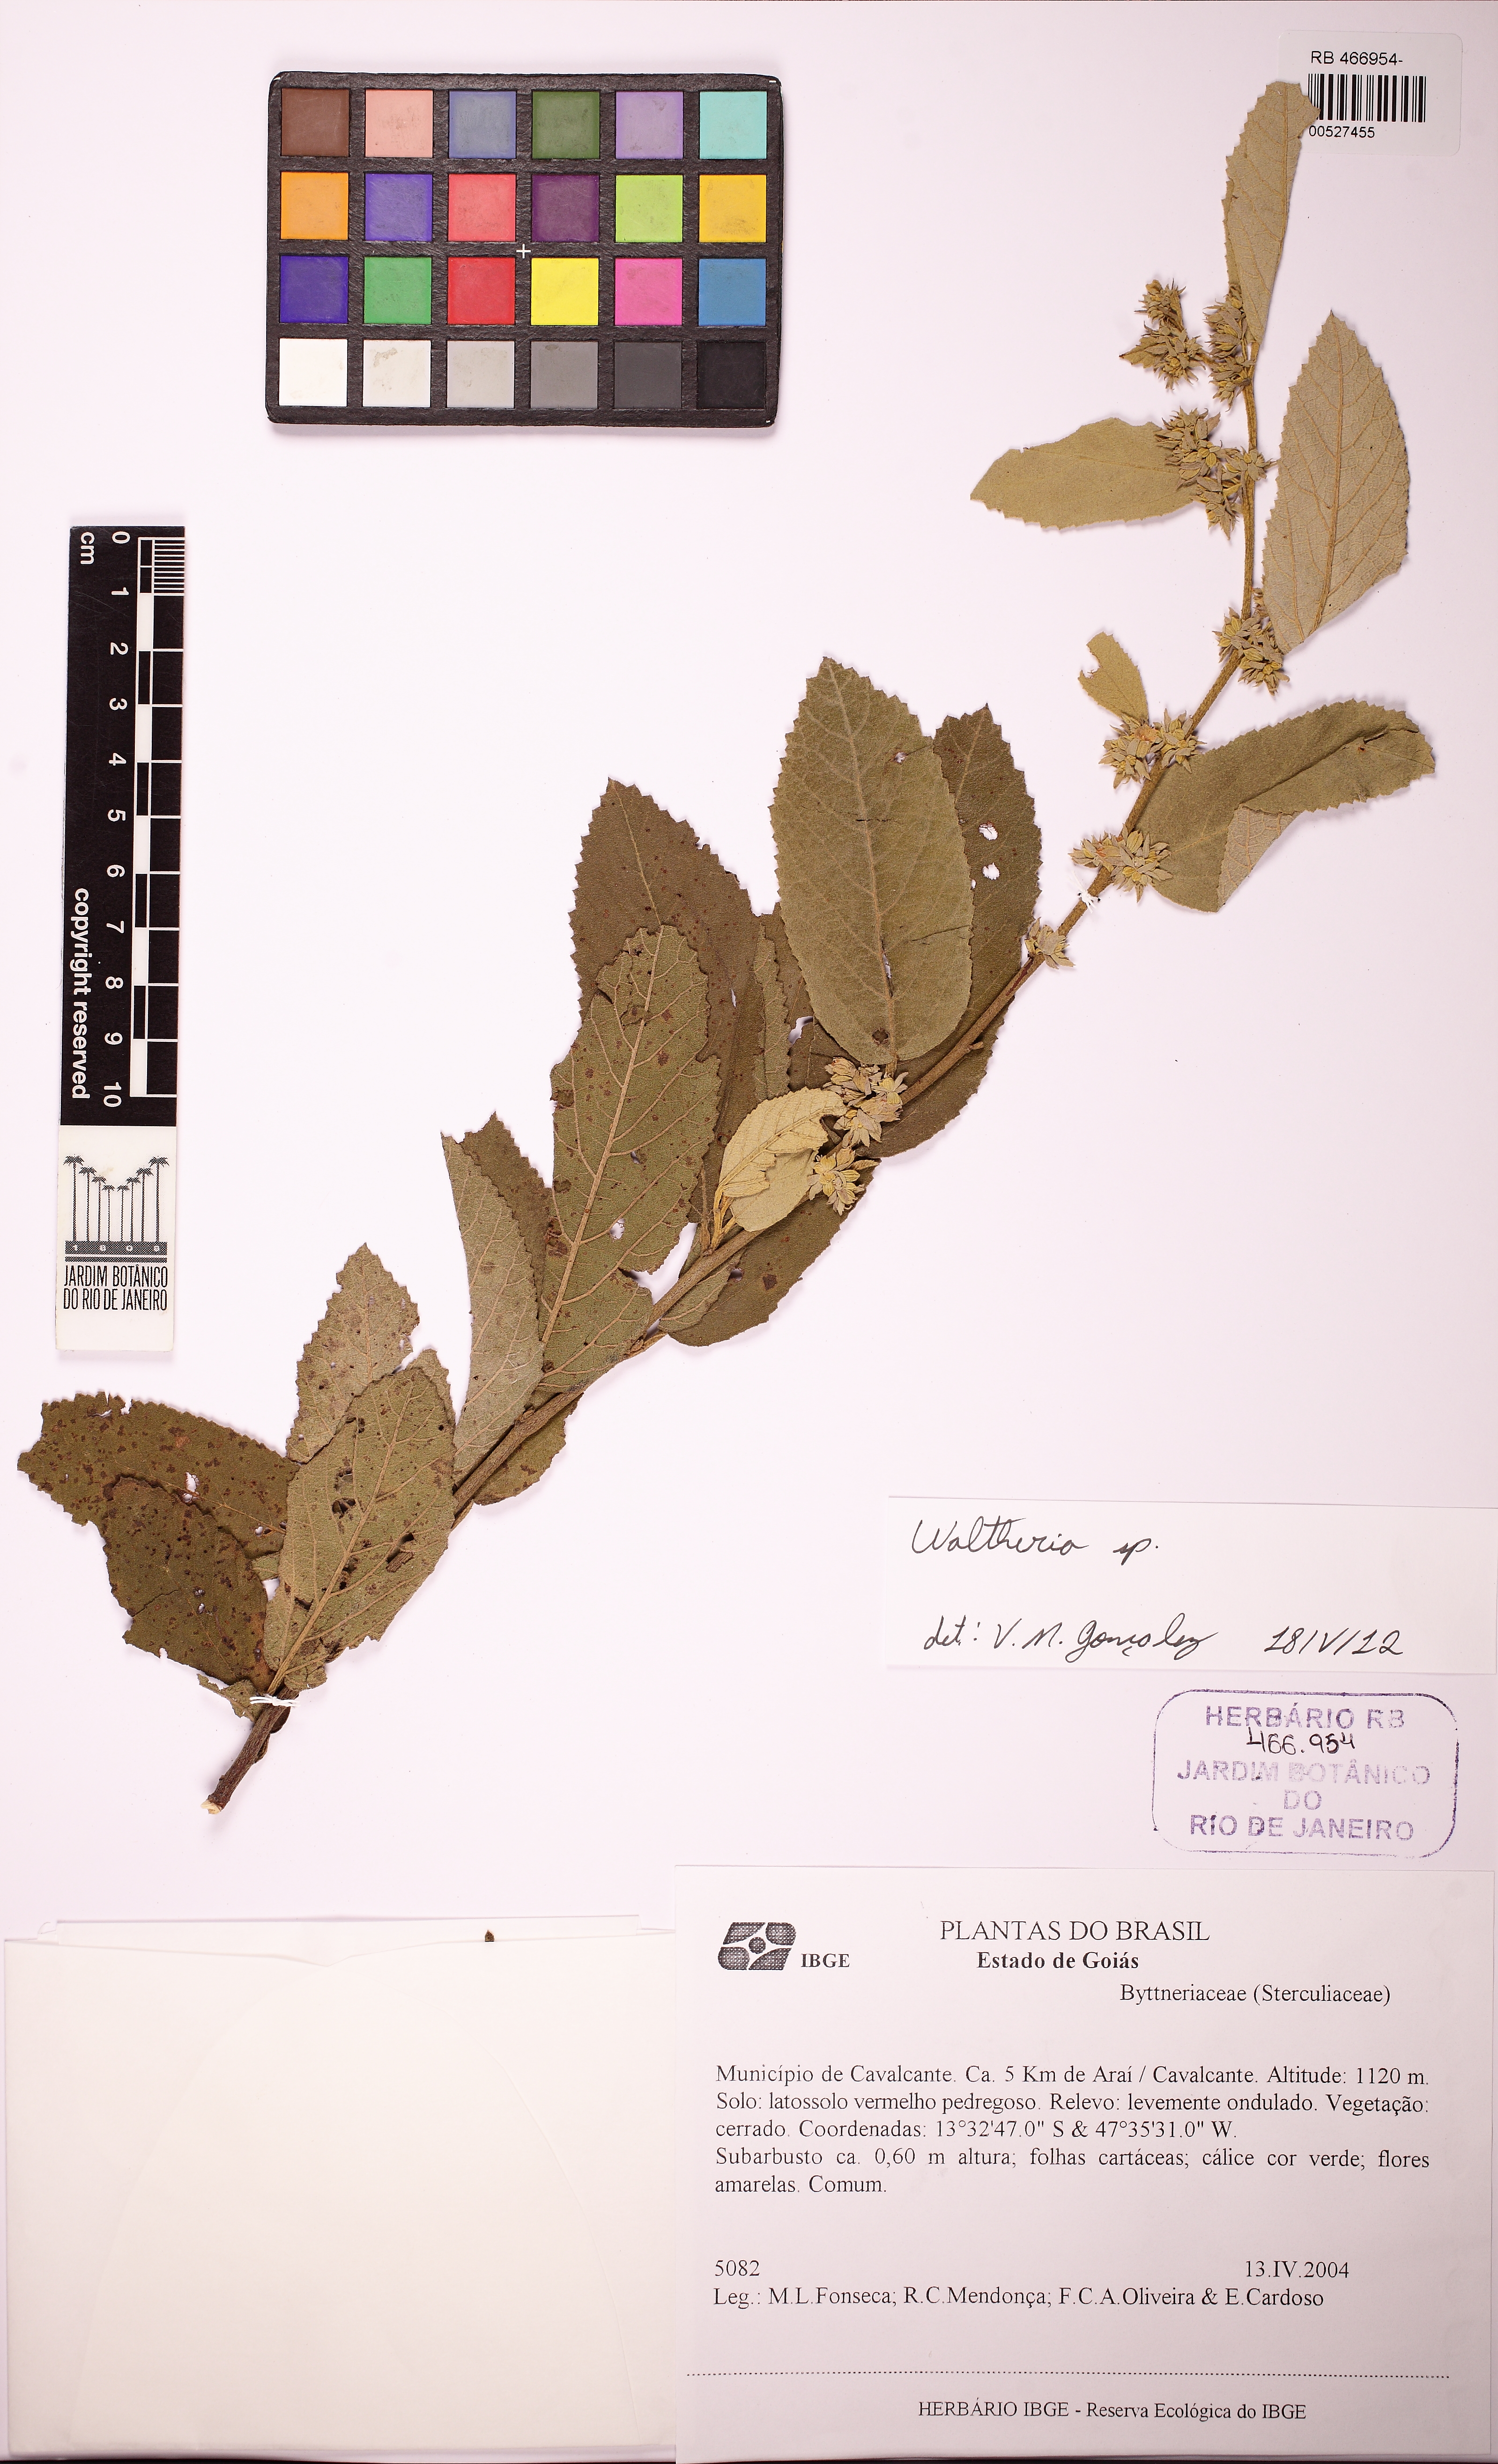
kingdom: Plantae
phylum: Tracheophyta
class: Magnoliopsida
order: Malvales
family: Malvaceae
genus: Waltheria
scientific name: Waltheria
